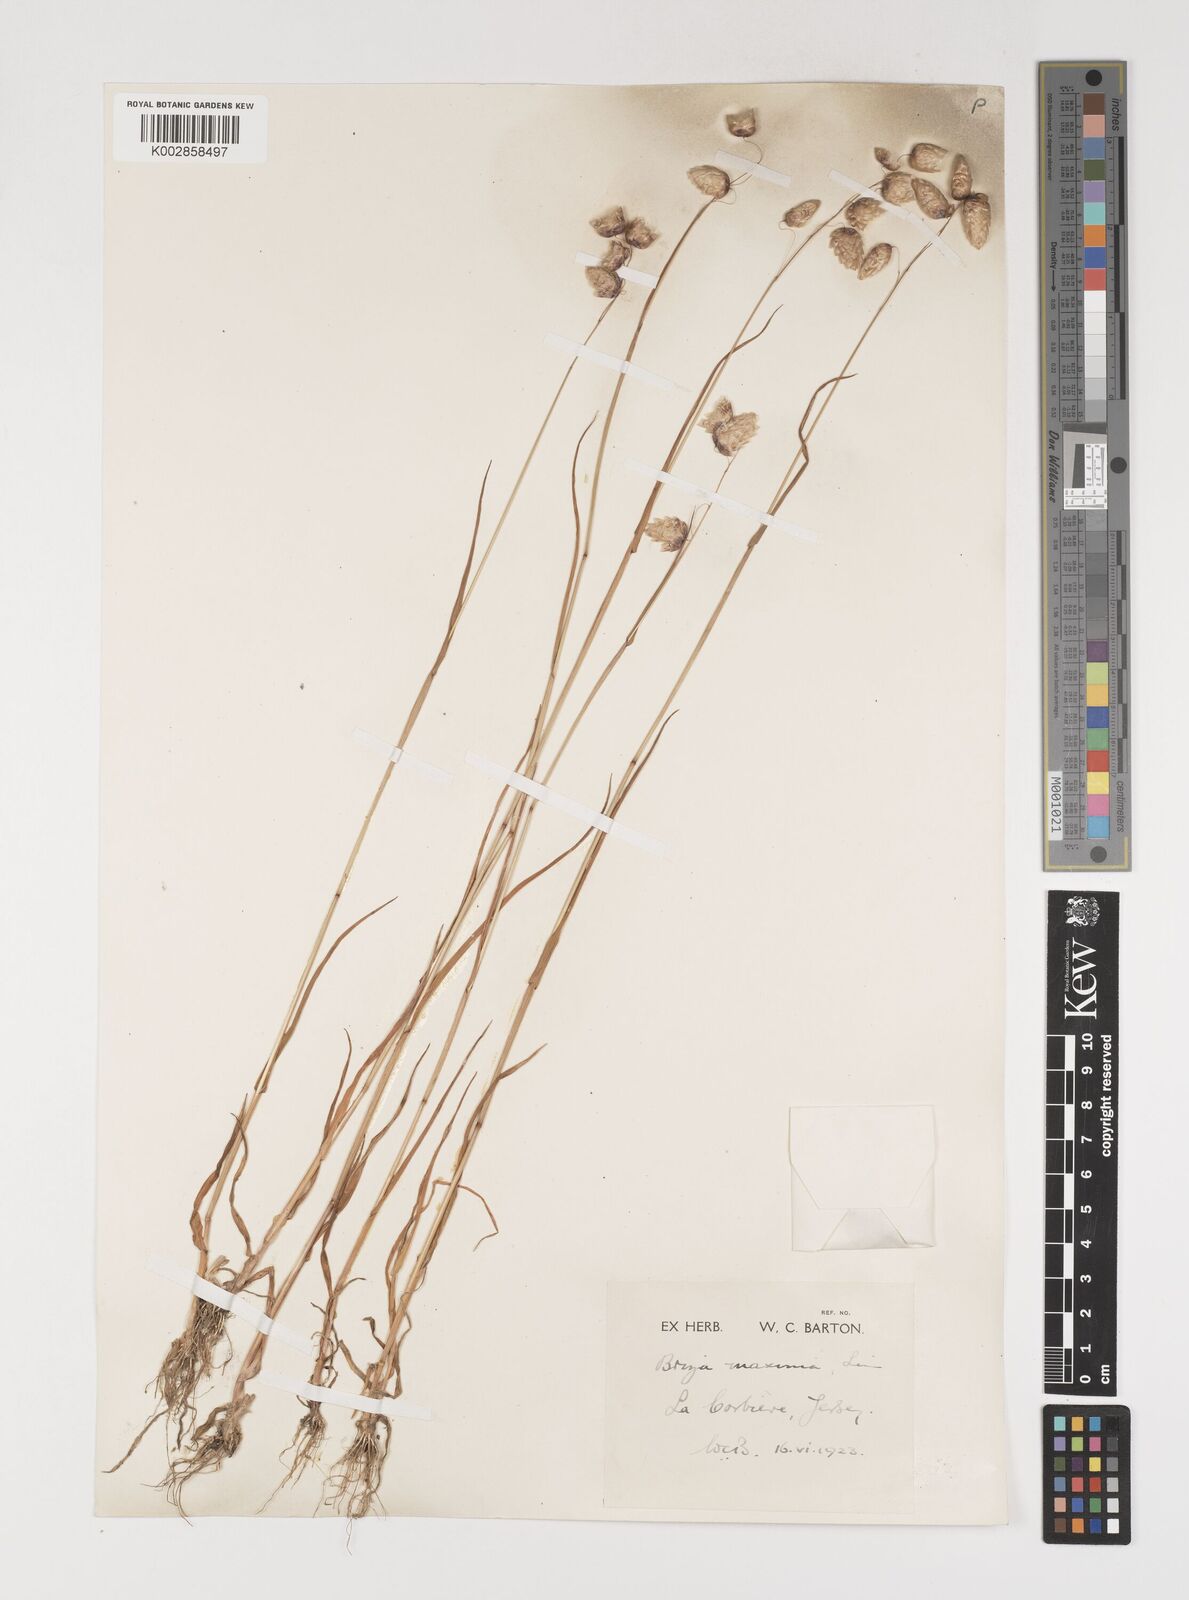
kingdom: Plantae
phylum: Tracheophyta
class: Liliopsida
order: Poales
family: Poaceae
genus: Briza
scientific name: Briza maxima
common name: Big quakinggrass
